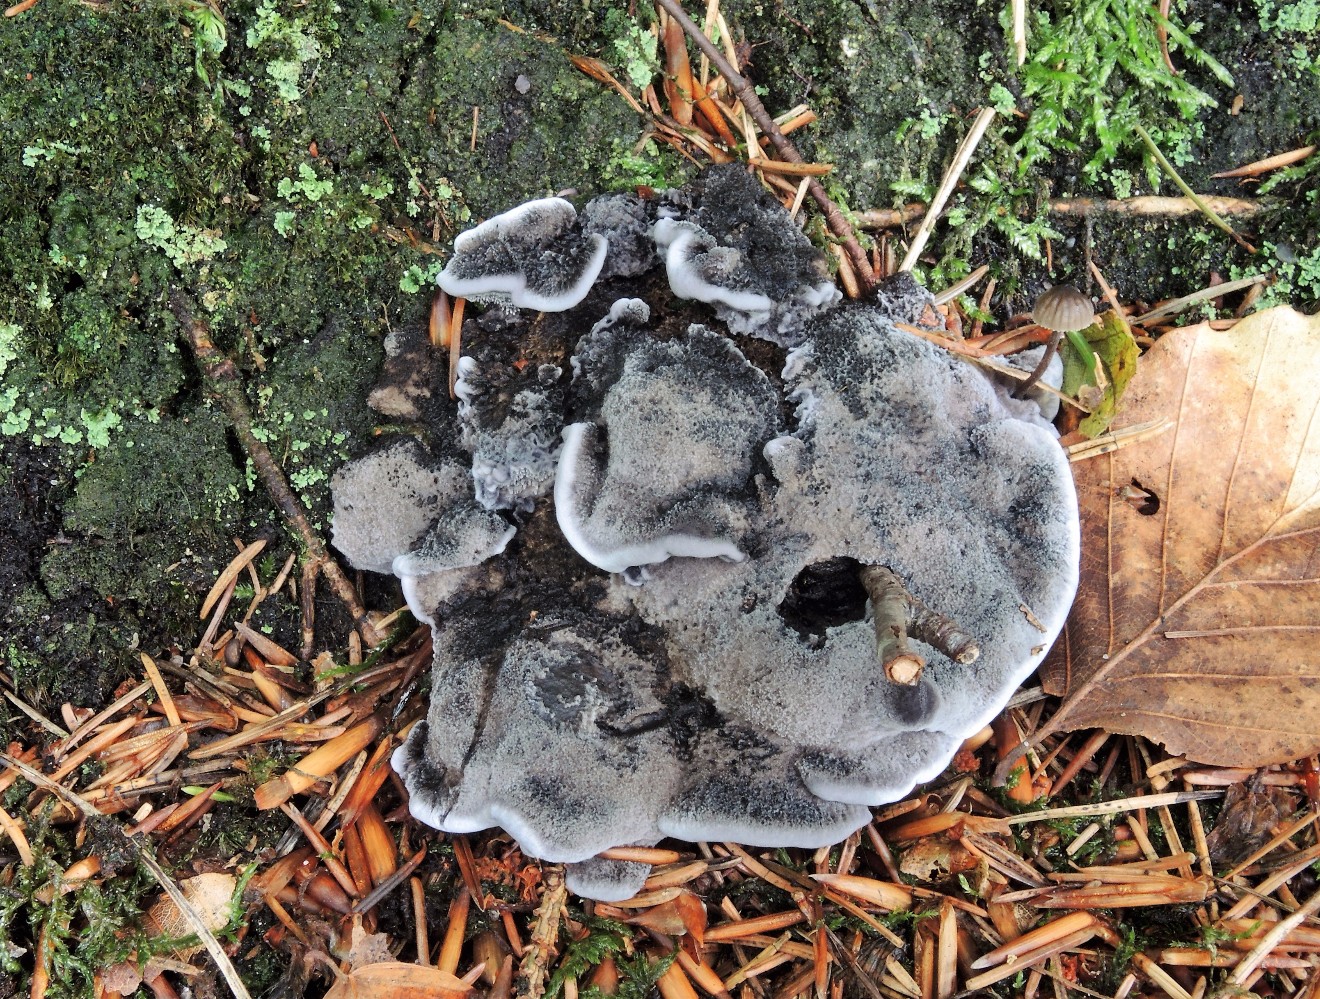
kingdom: Fungi
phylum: Basidiomycota
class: Agaricomycetes
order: Thelephorales
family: Thelephoraceae
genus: Phellodon
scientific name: Phellodon
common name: mørk duftpigsvamp
